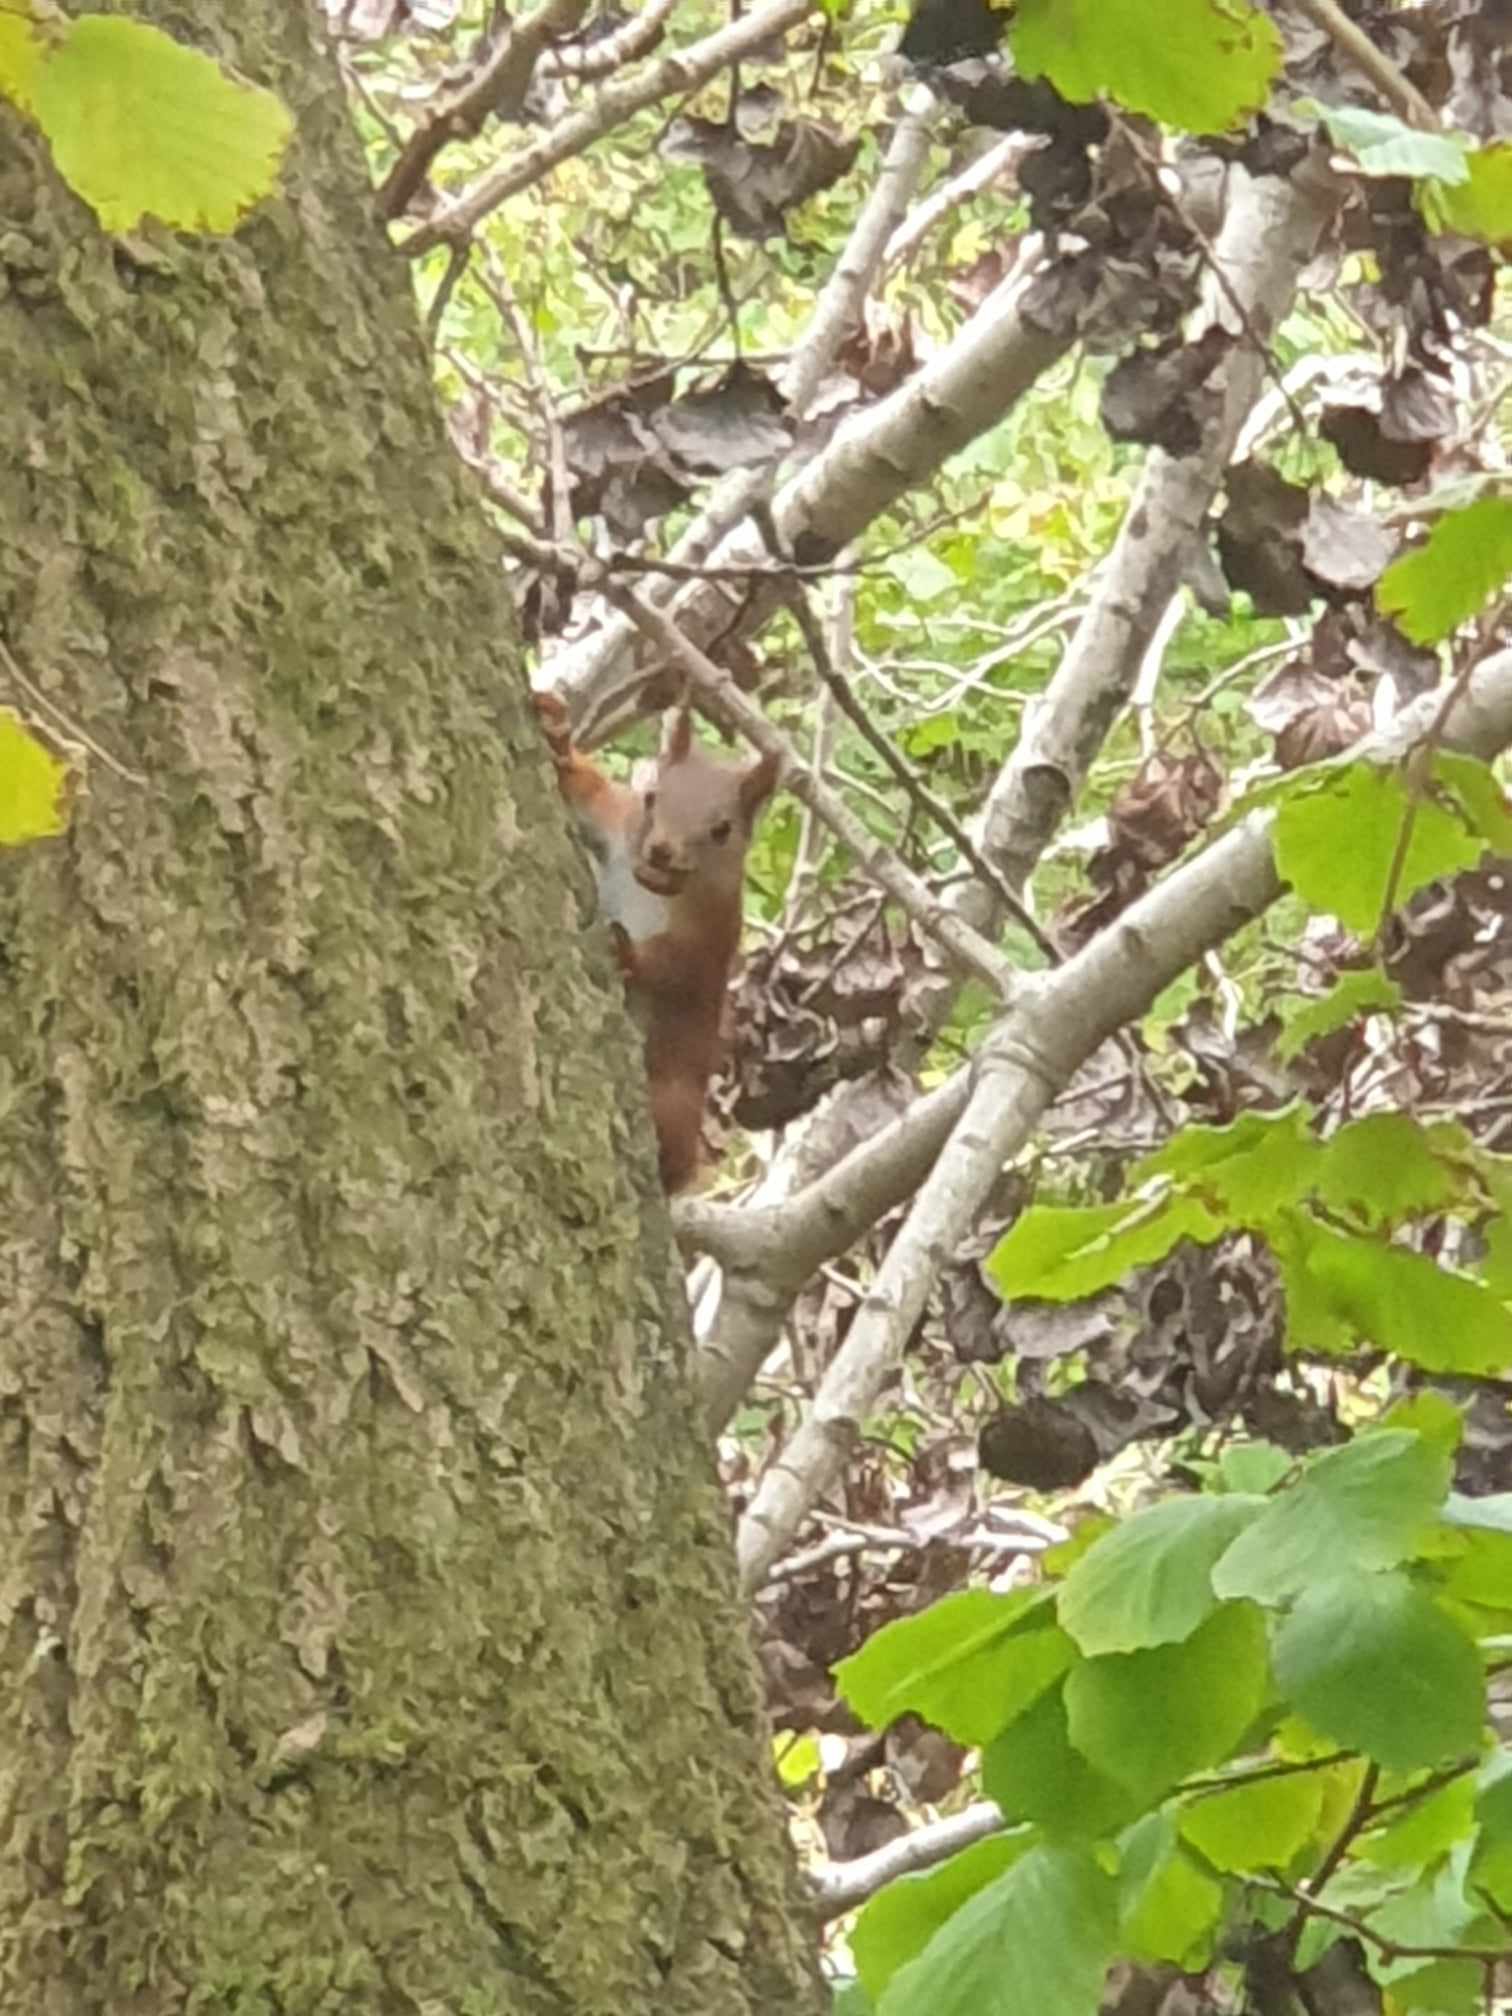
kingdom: Animalia
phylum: Chordata
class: Mammalia
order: Rodentia
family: Sciuridae
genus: Sciurus
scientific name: Sciurus vulgaris
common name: Egern
